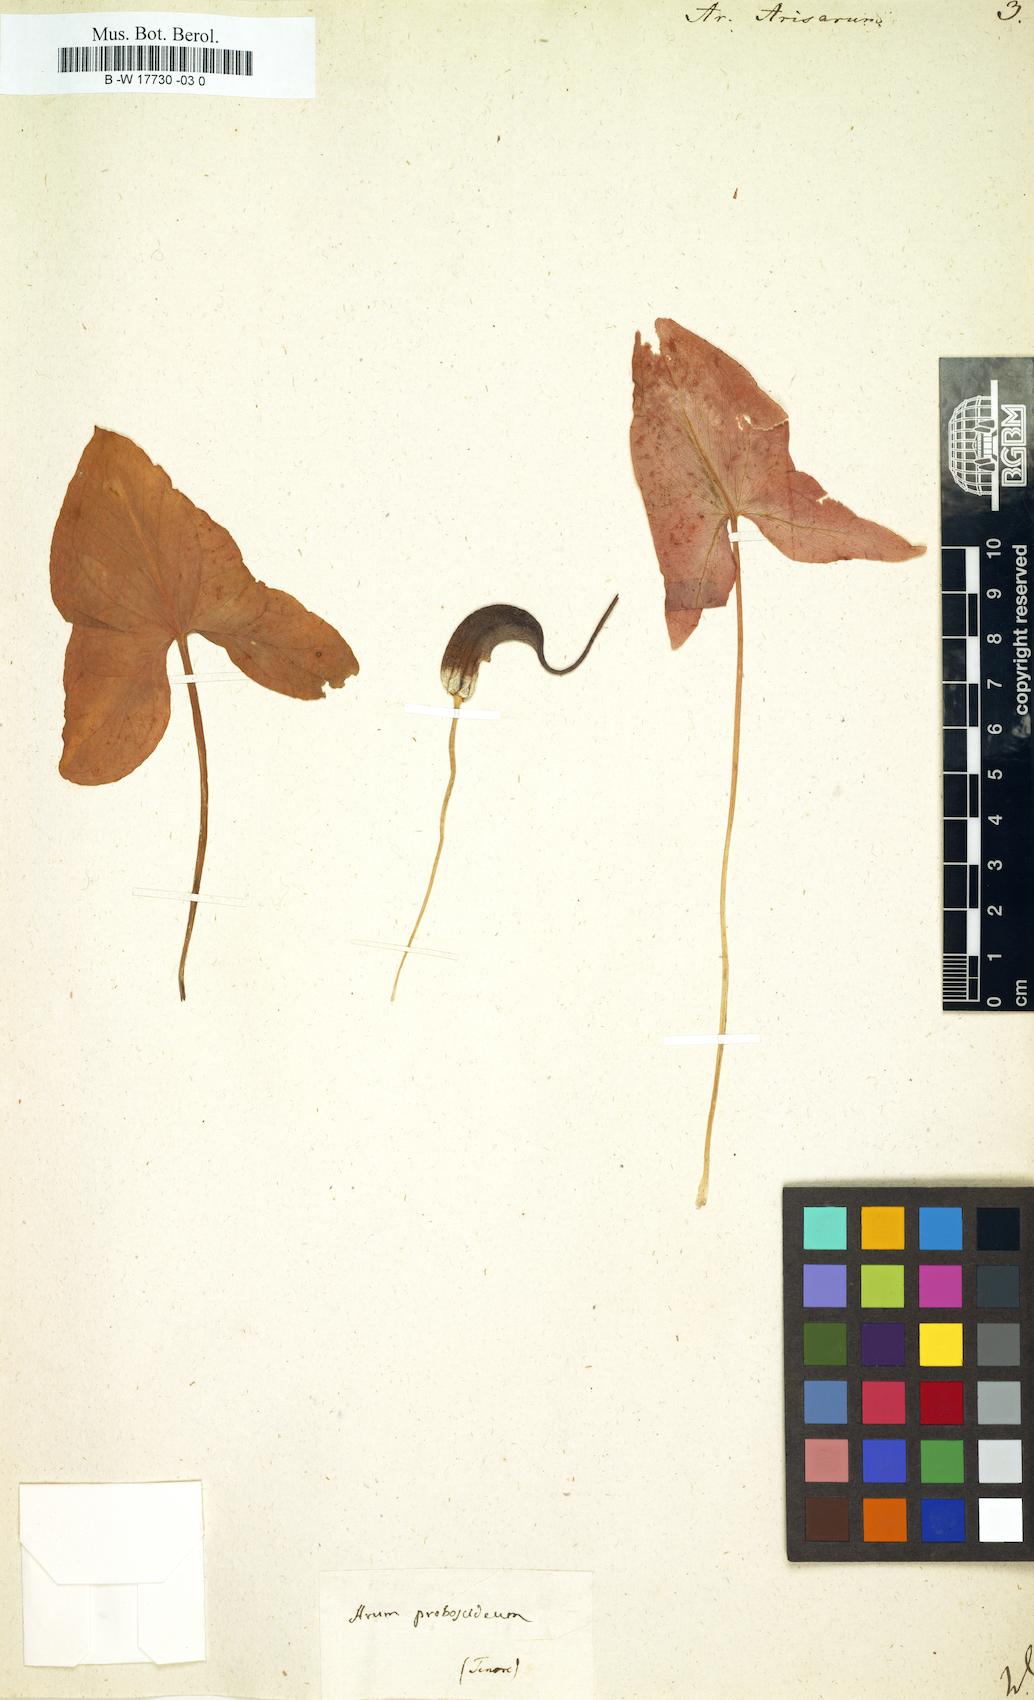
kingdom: Plantae
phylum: Tracheophyta
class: Liliopsida
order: Alismatales
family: Araceae
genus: Arisarum
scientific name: Arisarum vulgare
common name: Common arisarum
